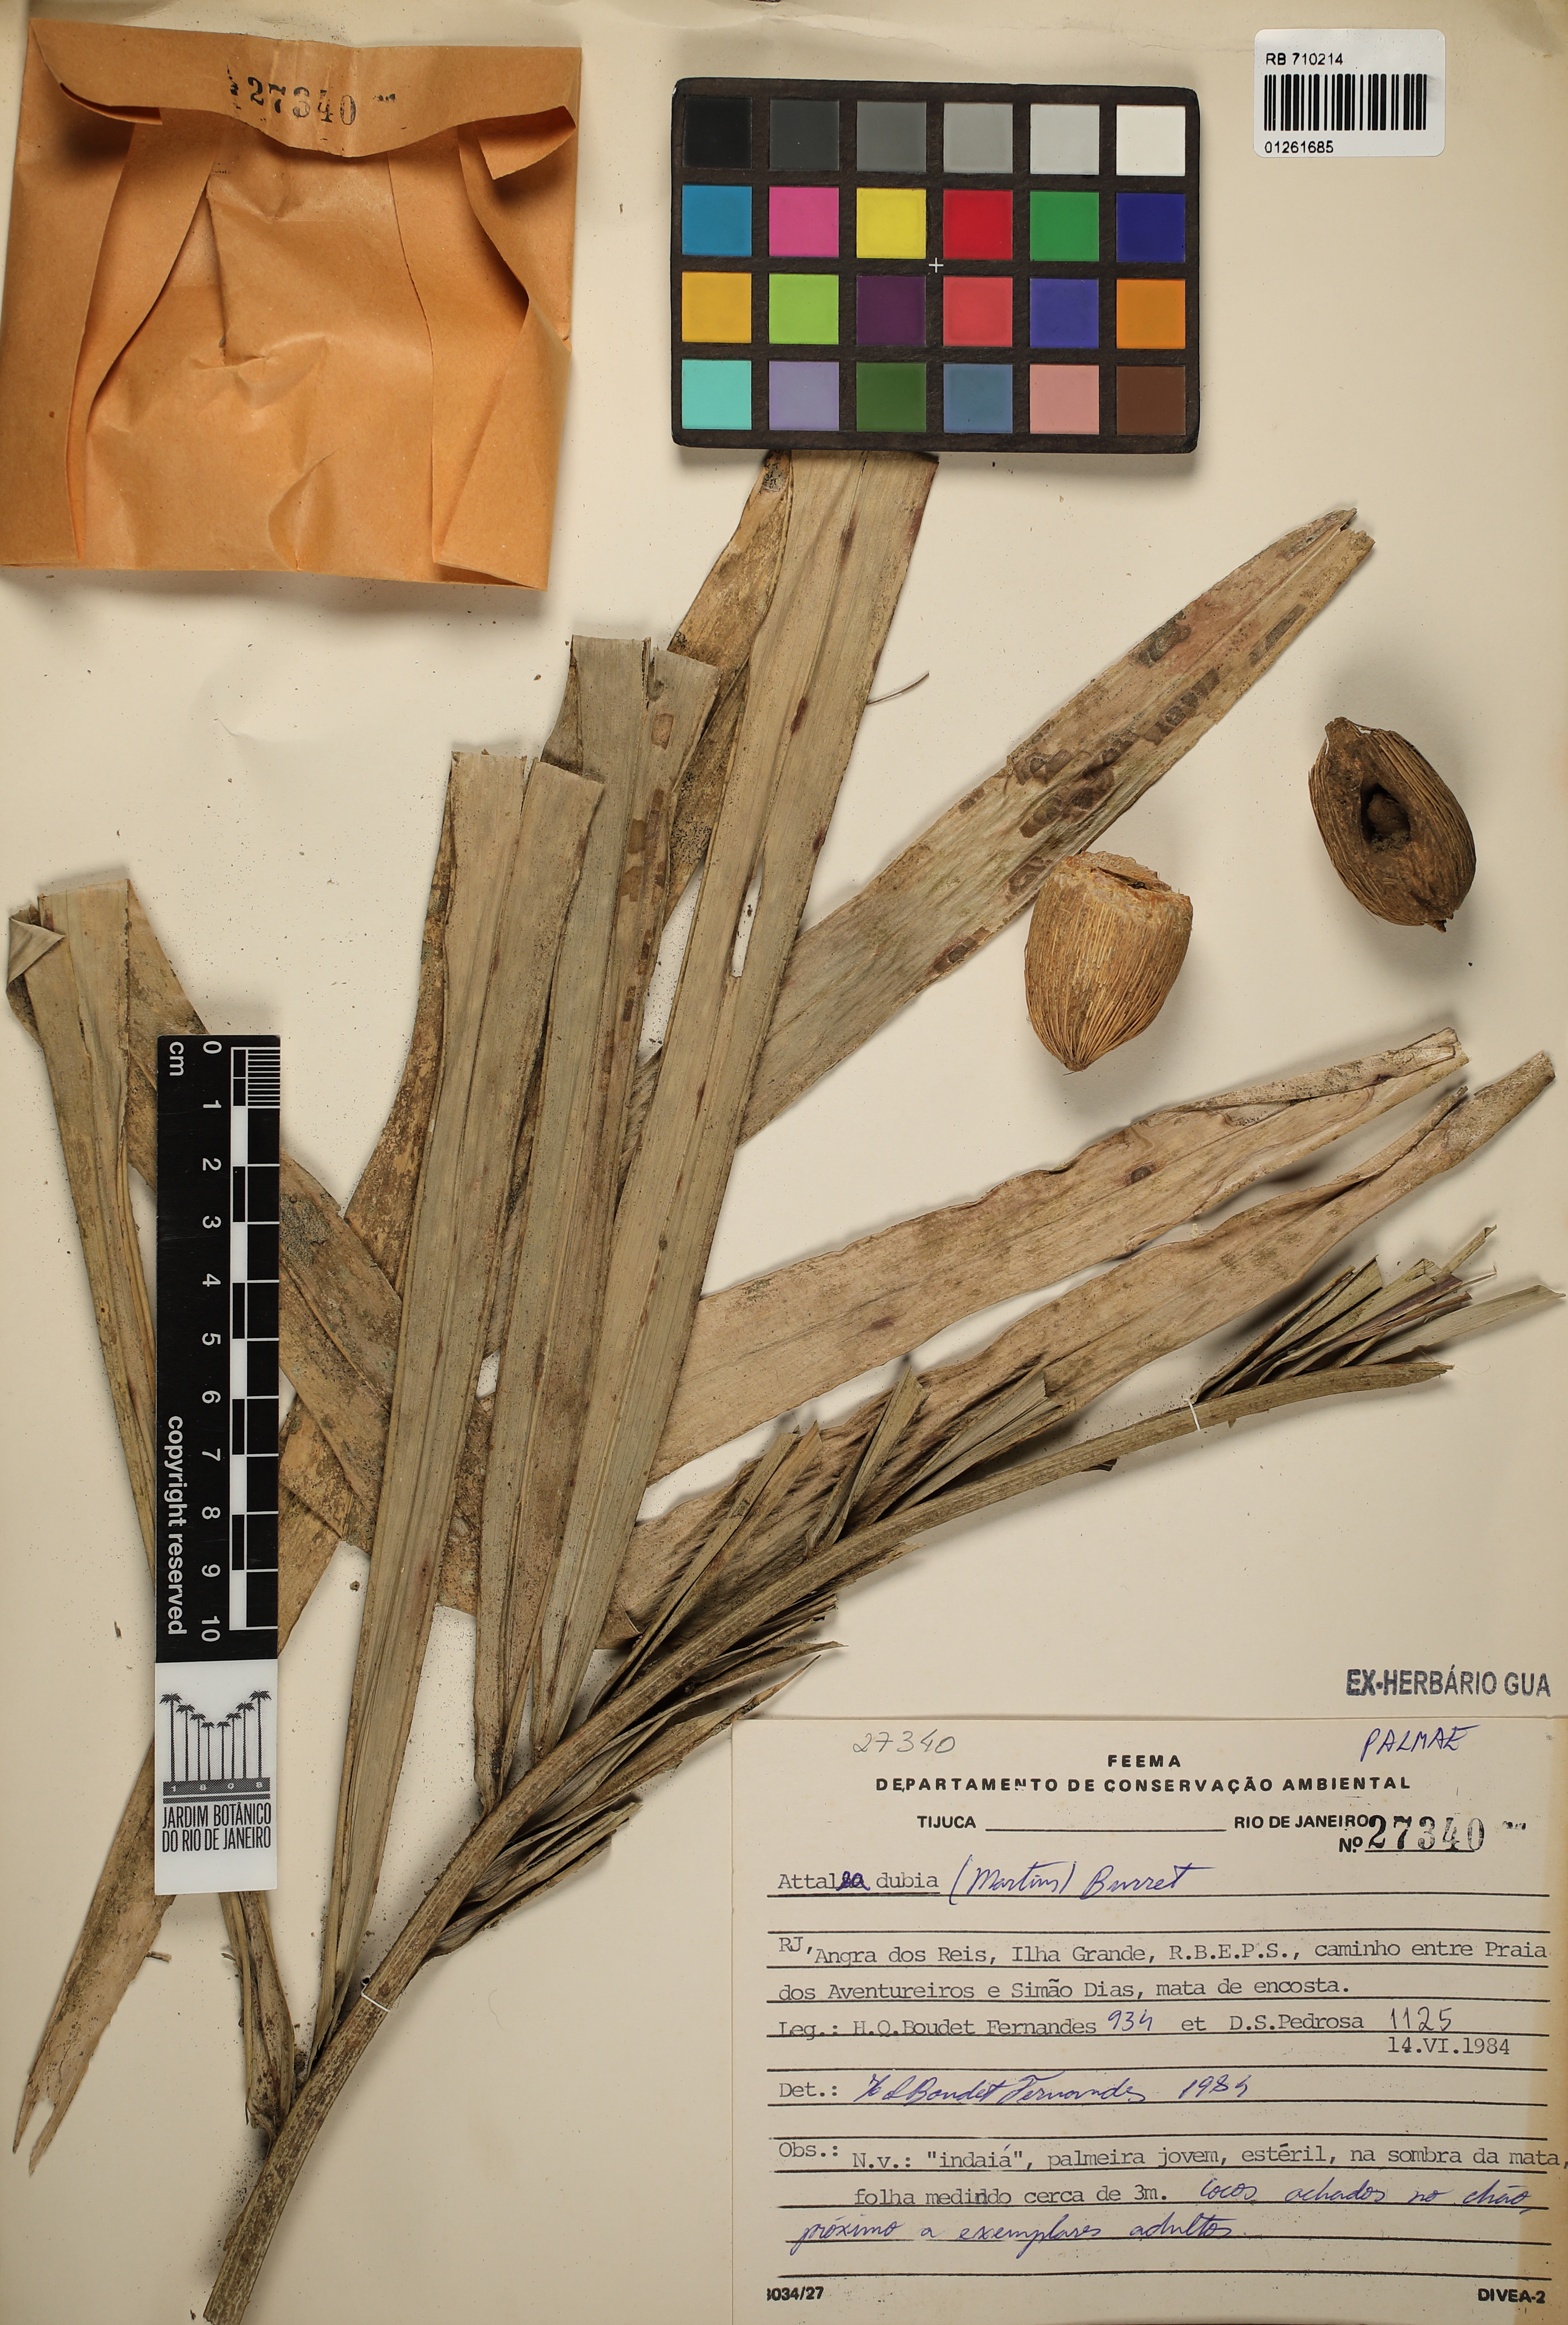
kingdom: Plantae
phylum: Tracheophyta
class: Liliopsida
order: Arecales
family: Arecaceae
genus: Attalea
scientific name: Attalea dubia
